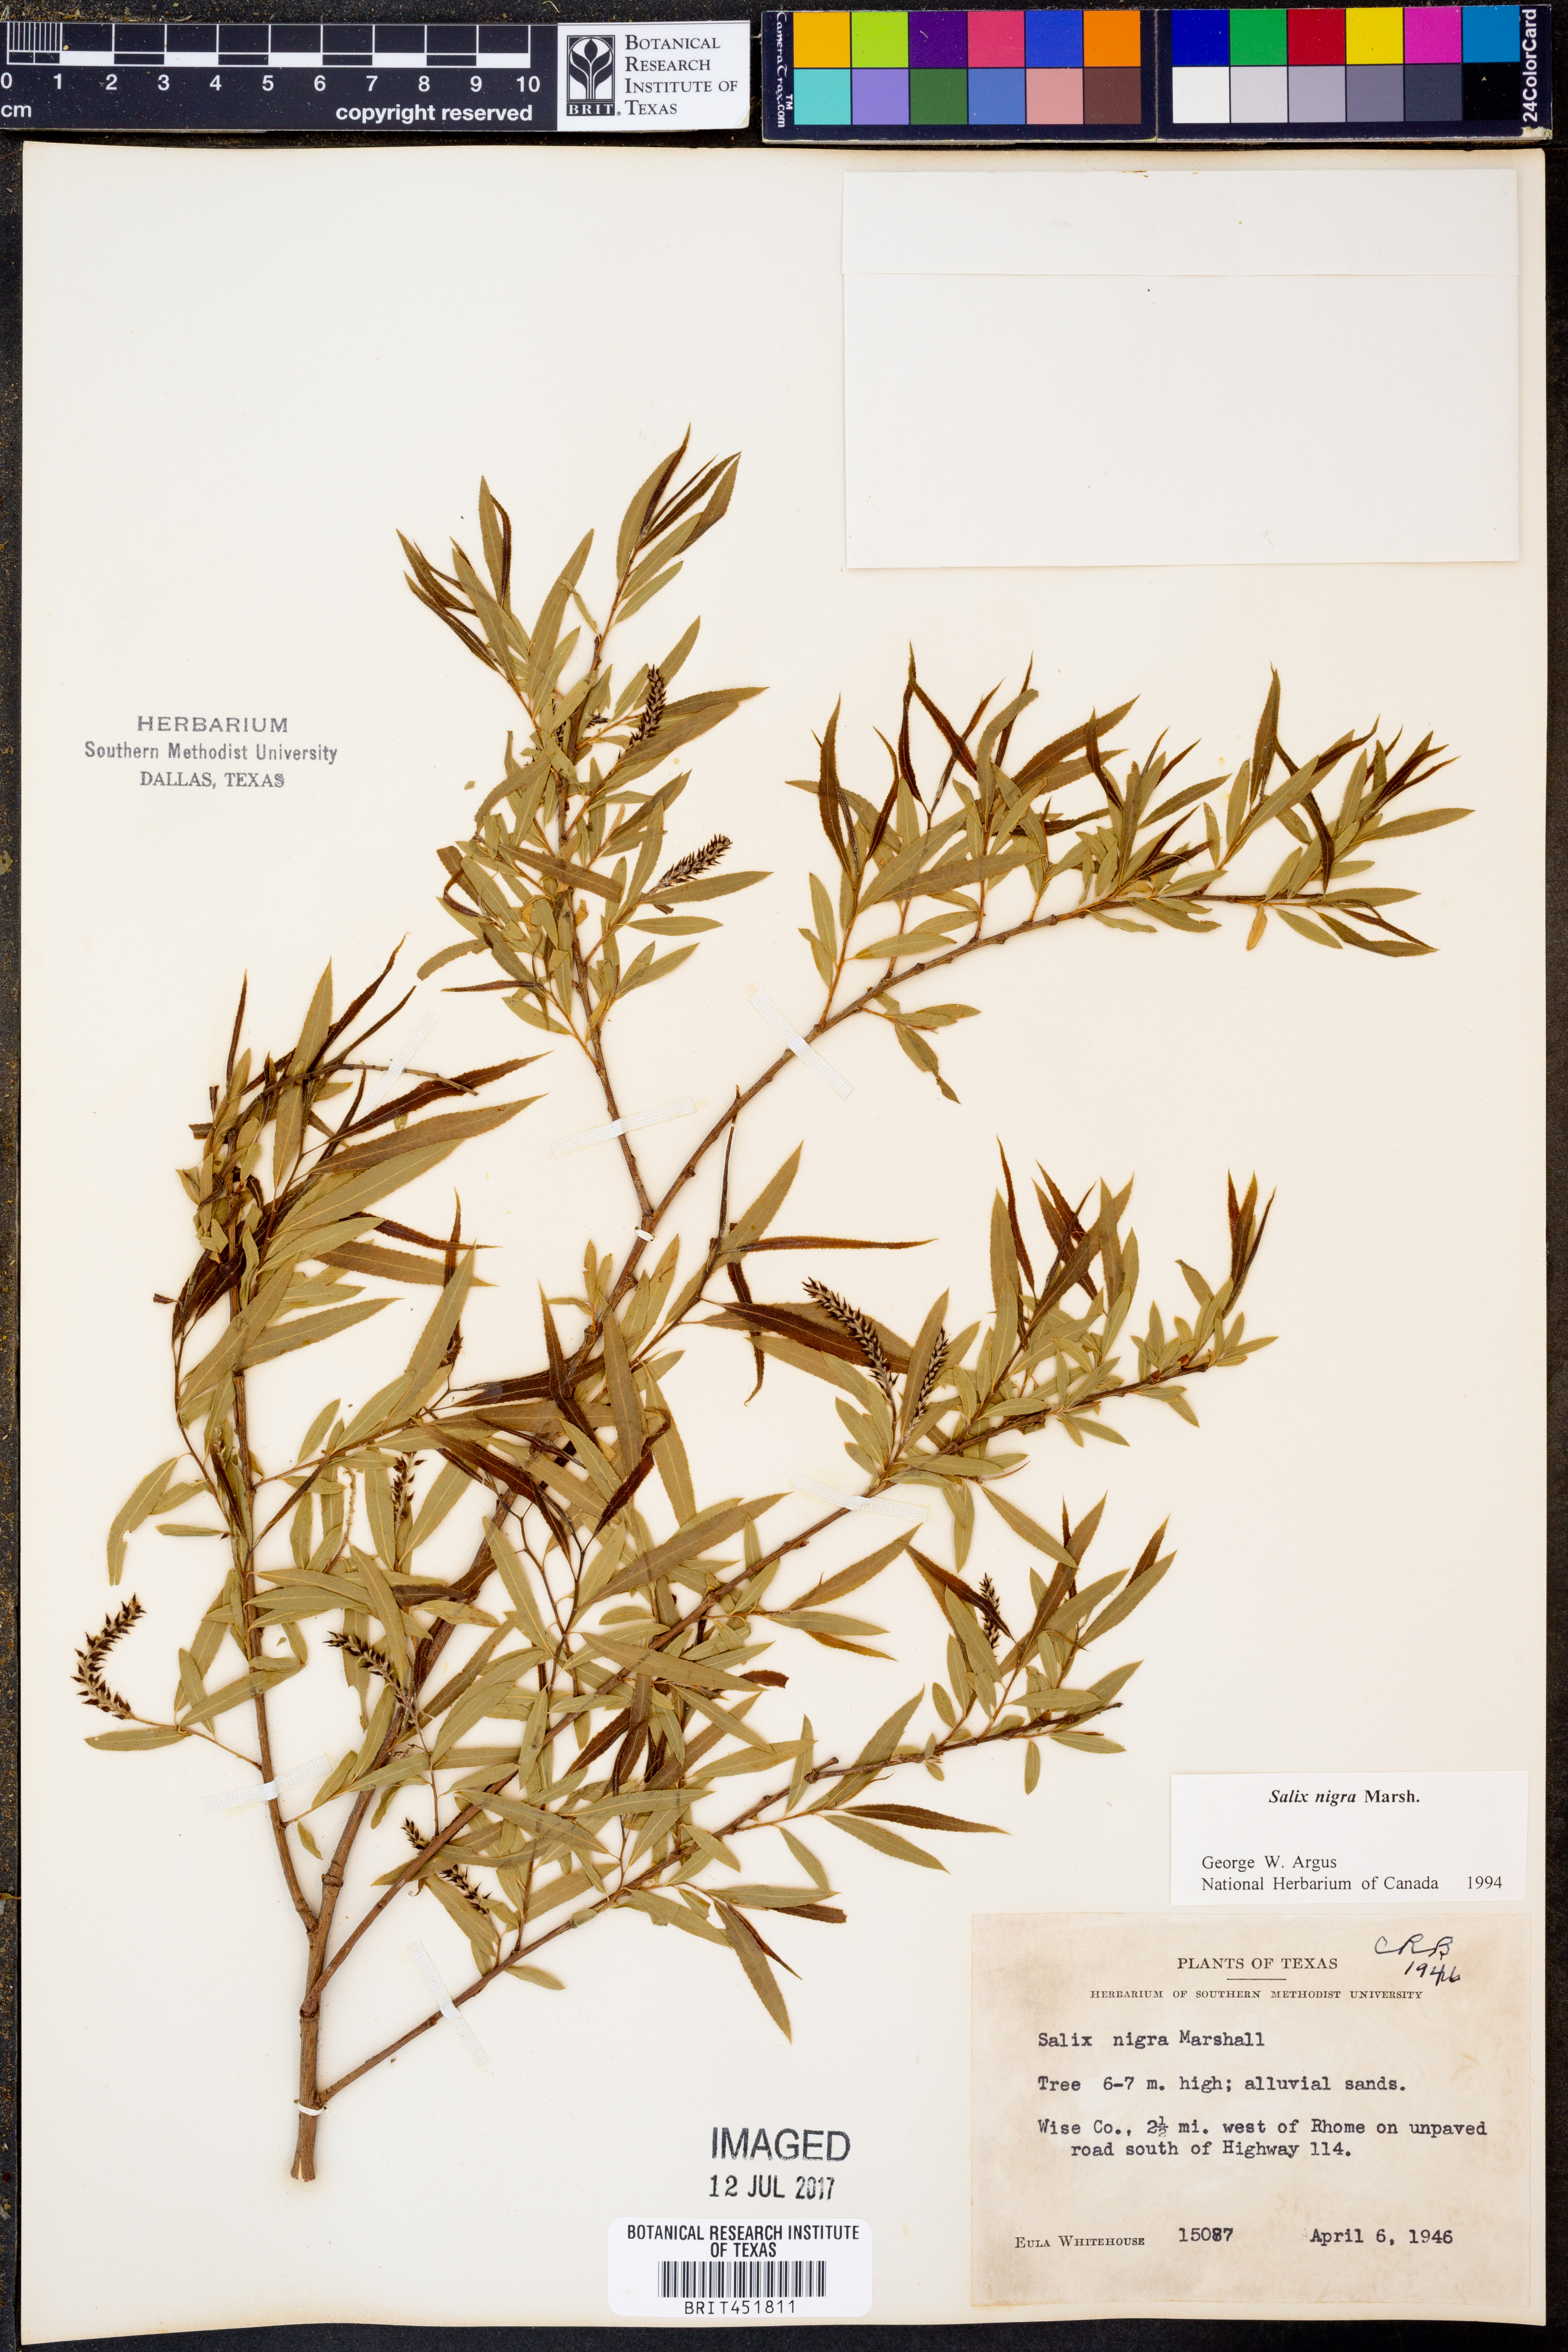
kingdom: Plantae
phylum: Tracheophyta
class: Magnoliopsida
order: Malpighiales
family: Salicaceae
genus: Salix
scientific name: Salix nigra
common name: Black willow
